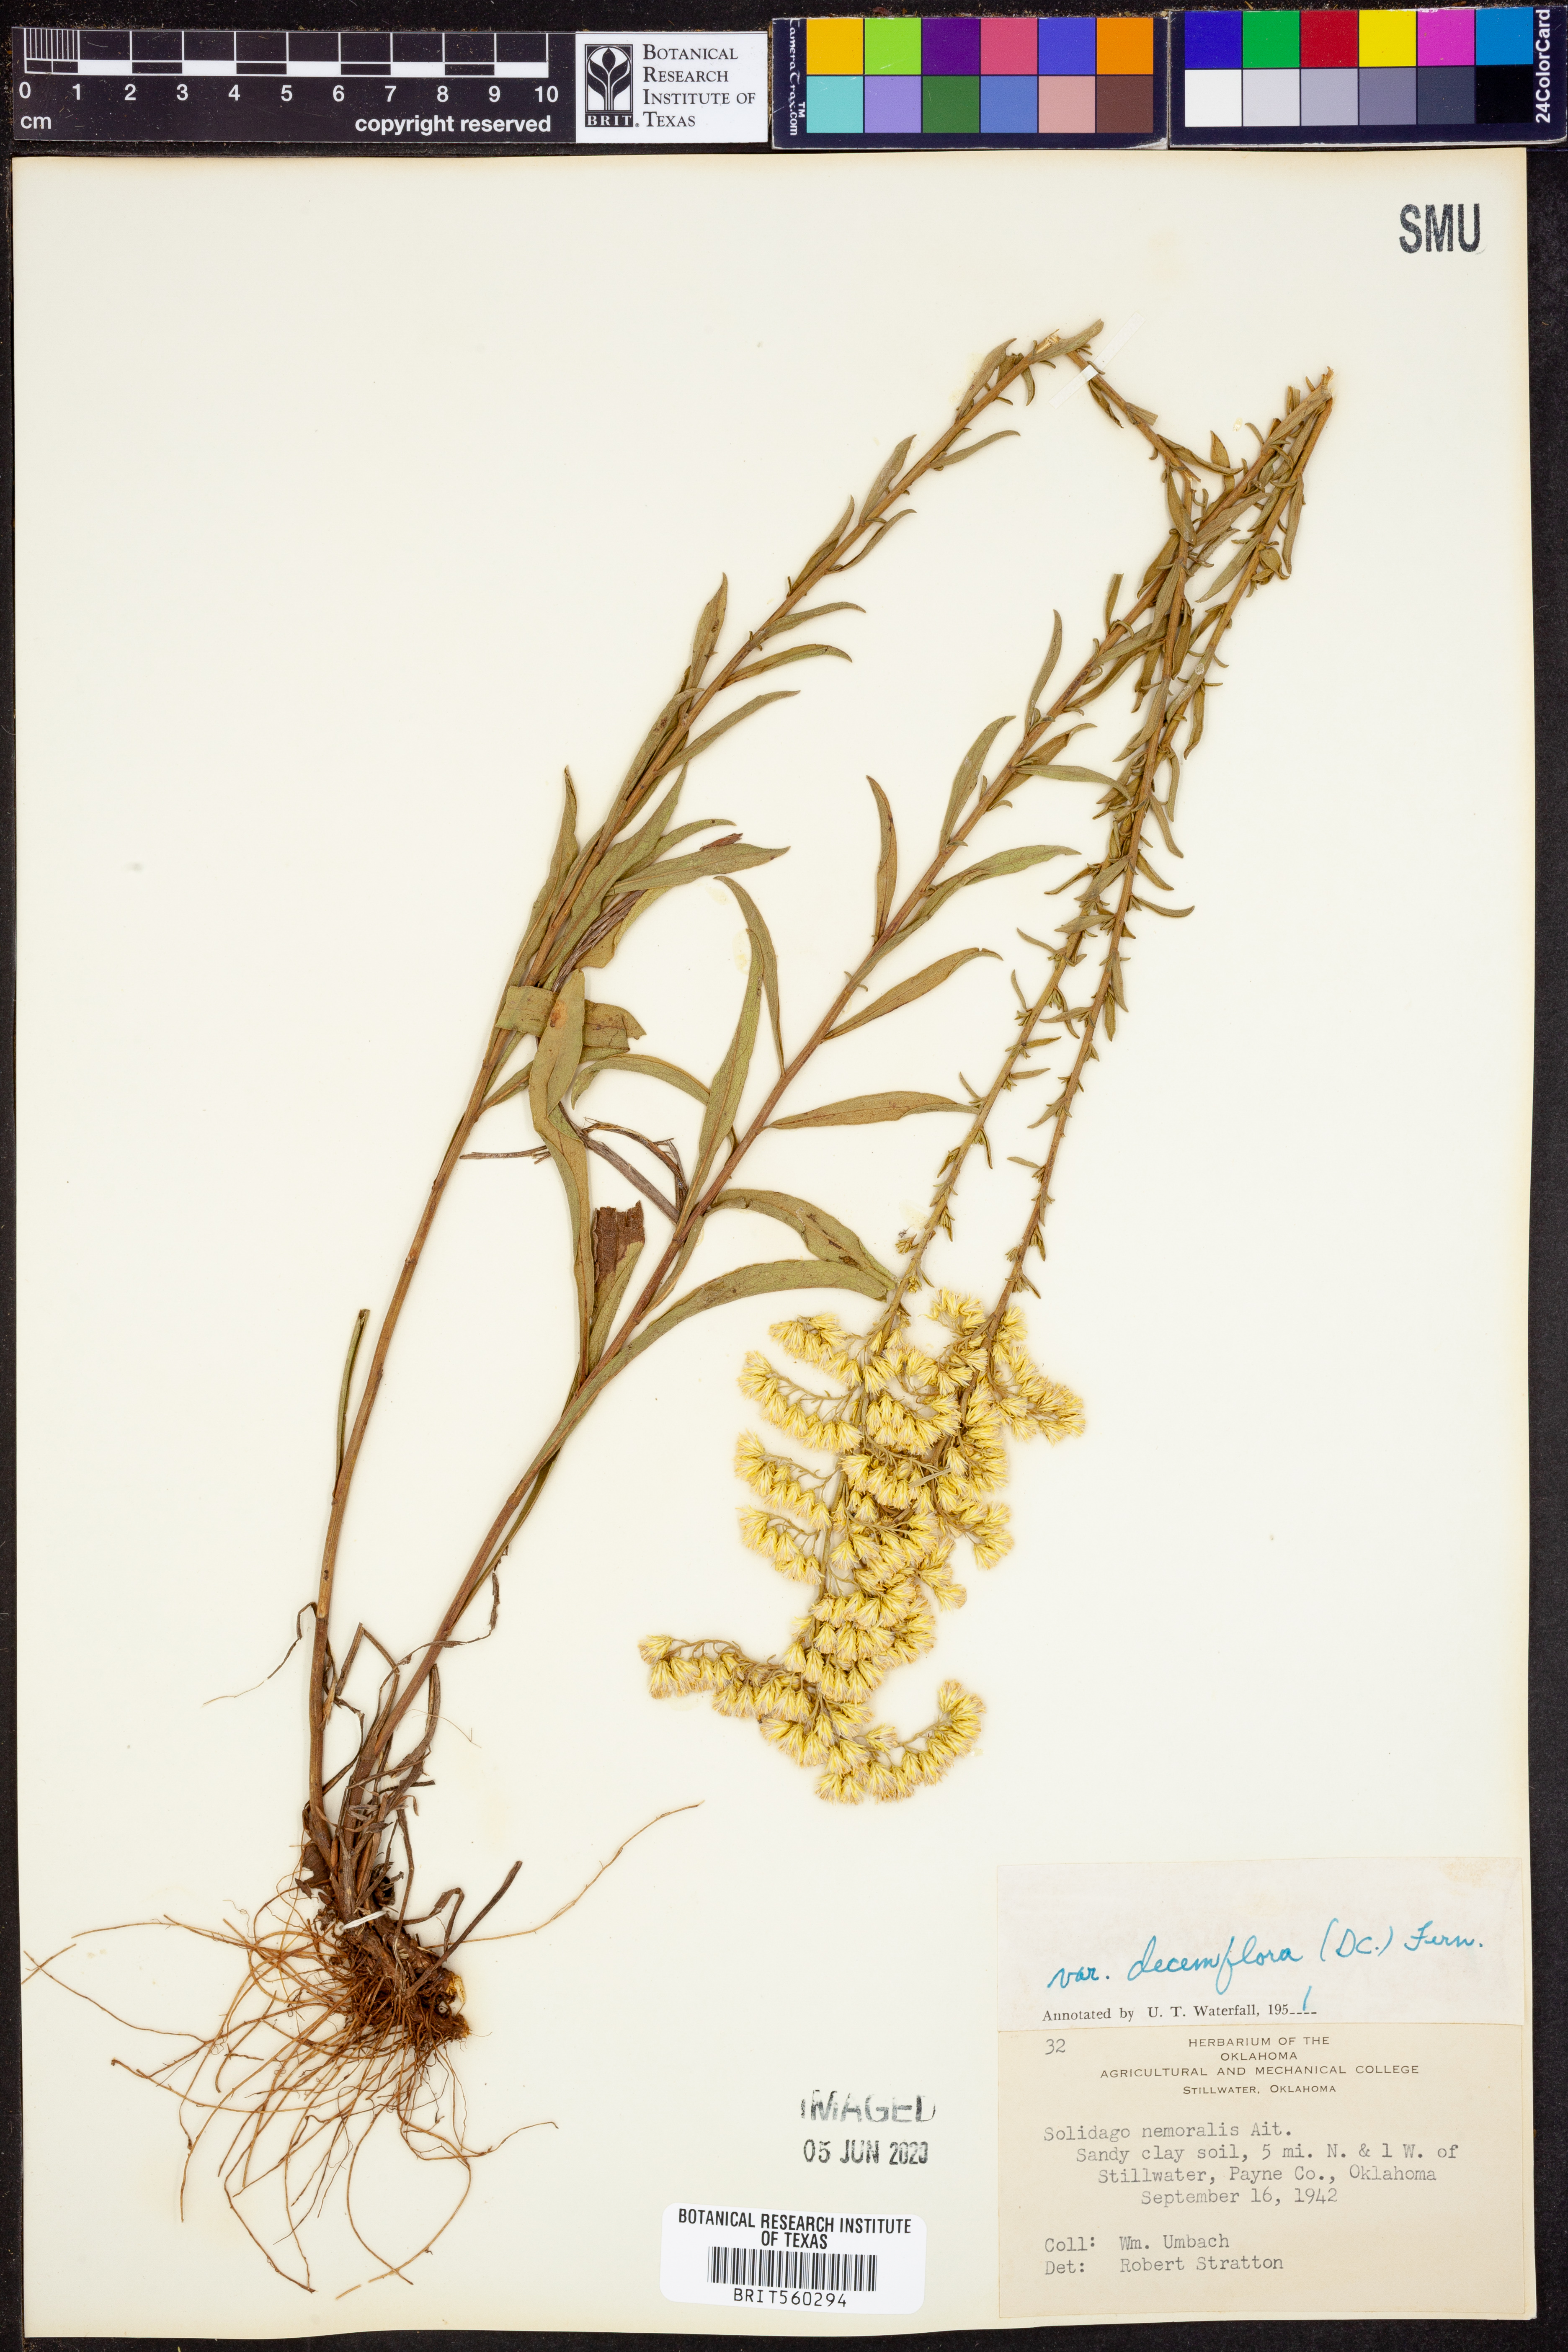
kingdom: Plantae
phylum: Tracheophyta
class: Magnoliopsida
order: Asterales
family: Asteraceae
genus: Solidago
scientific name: Solidago decemflora
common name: Prairie grey-stemmed goldenrod
